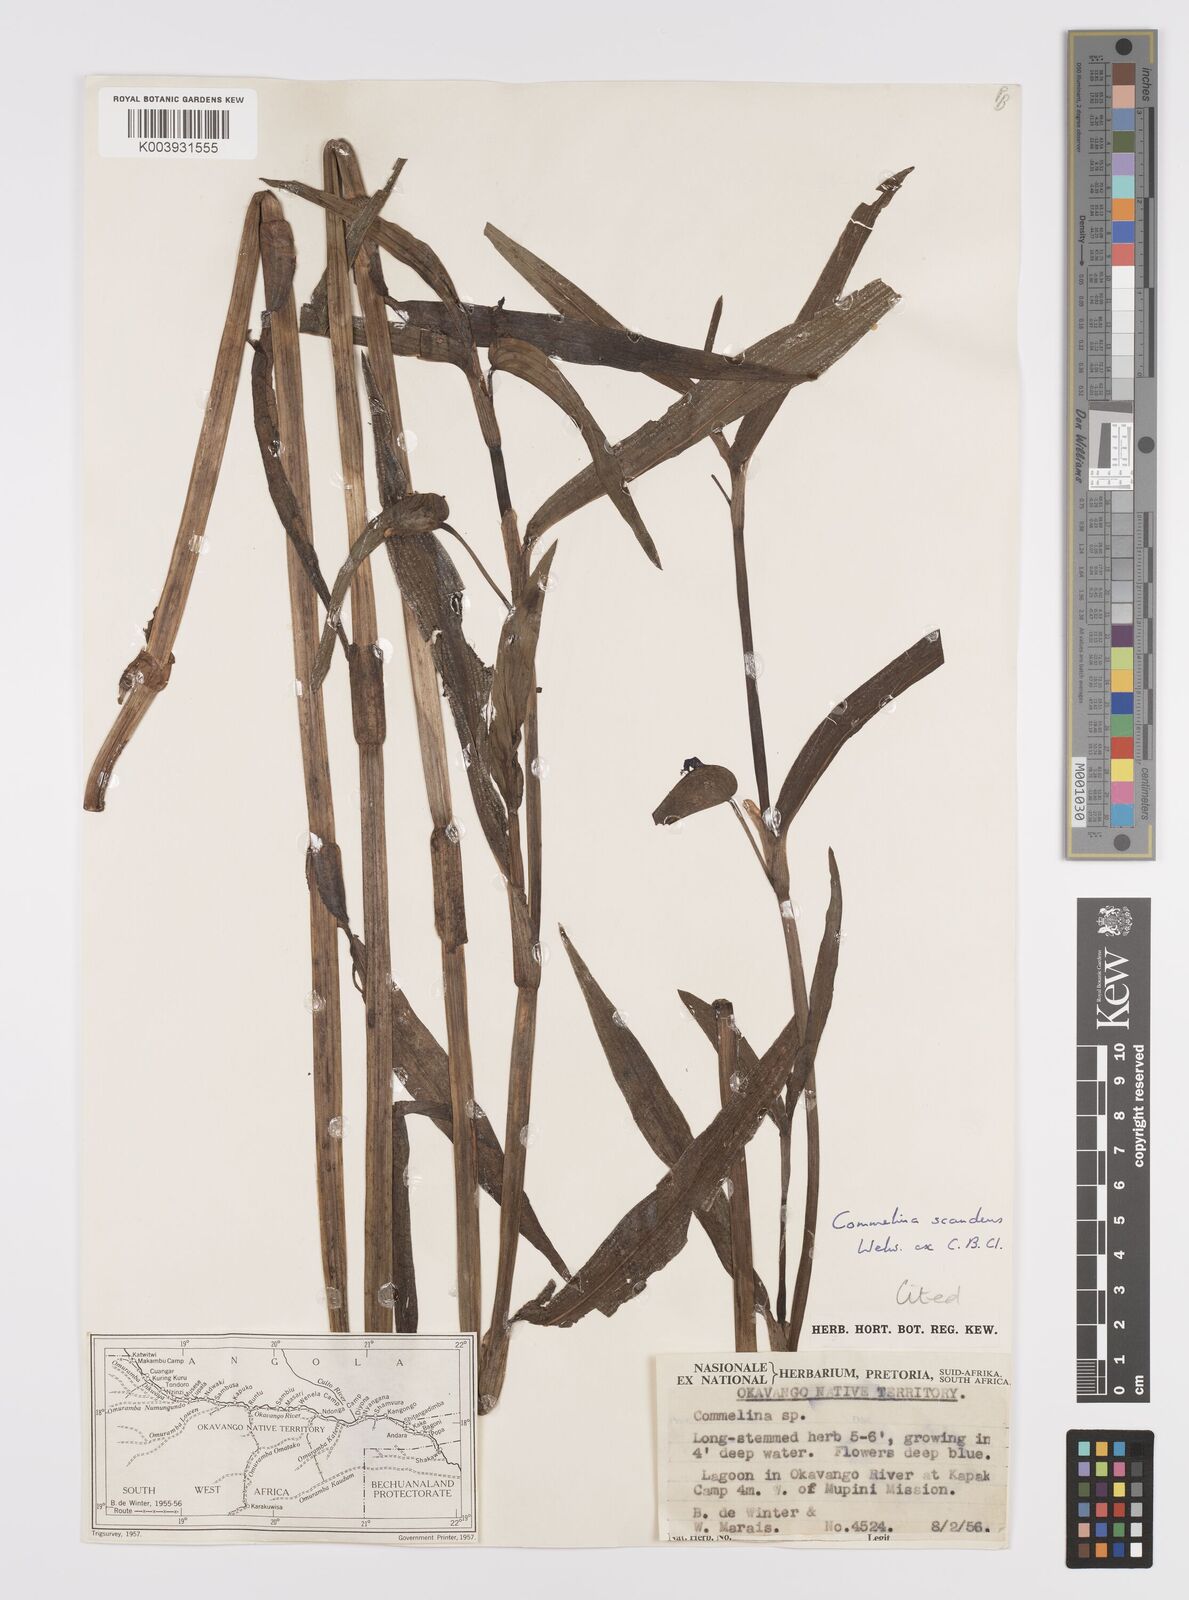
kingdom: Plantae
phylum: Tracheophyta
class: Liliopsida
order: Commelinales
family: Commelinaceae
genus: Commelina
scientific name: Commelina scandens
